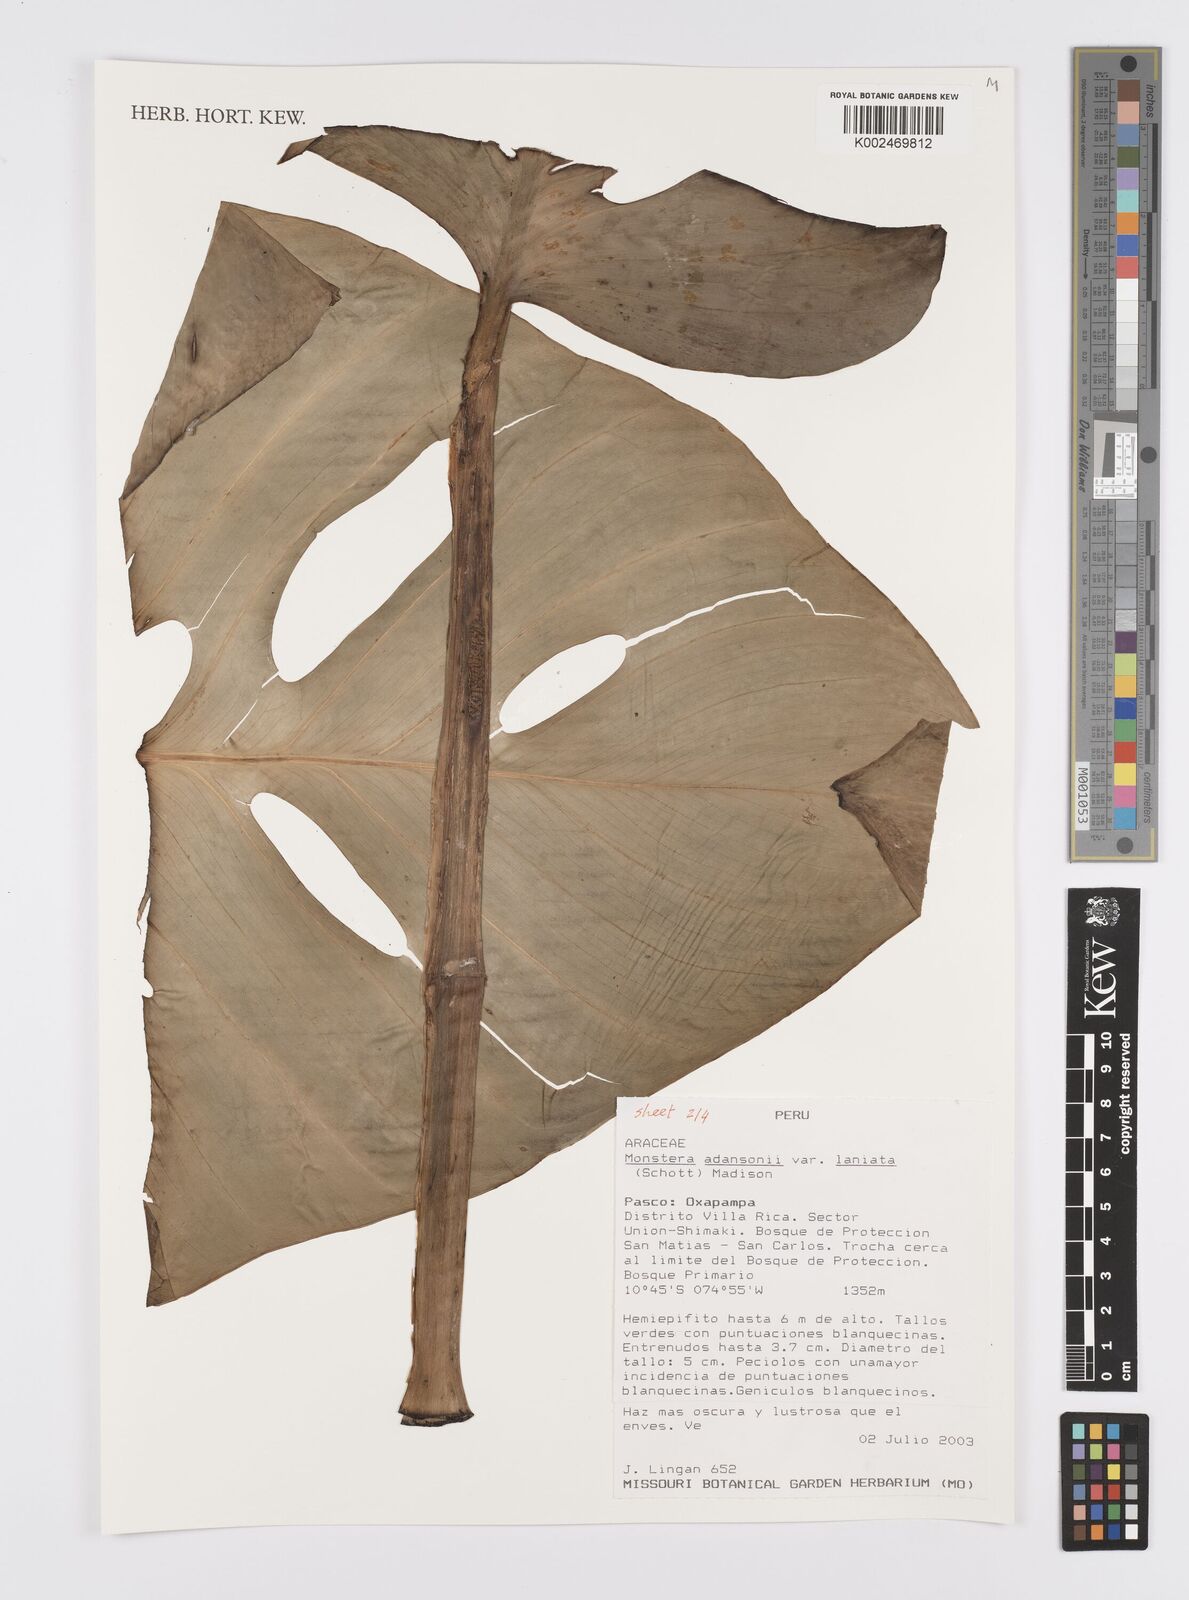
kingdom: Plantae
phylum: Tracheophyta
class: Liliopsida
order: Alismatales
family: Araceae
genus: Monstera
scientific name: Monstera adansonii
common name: Tarovine
